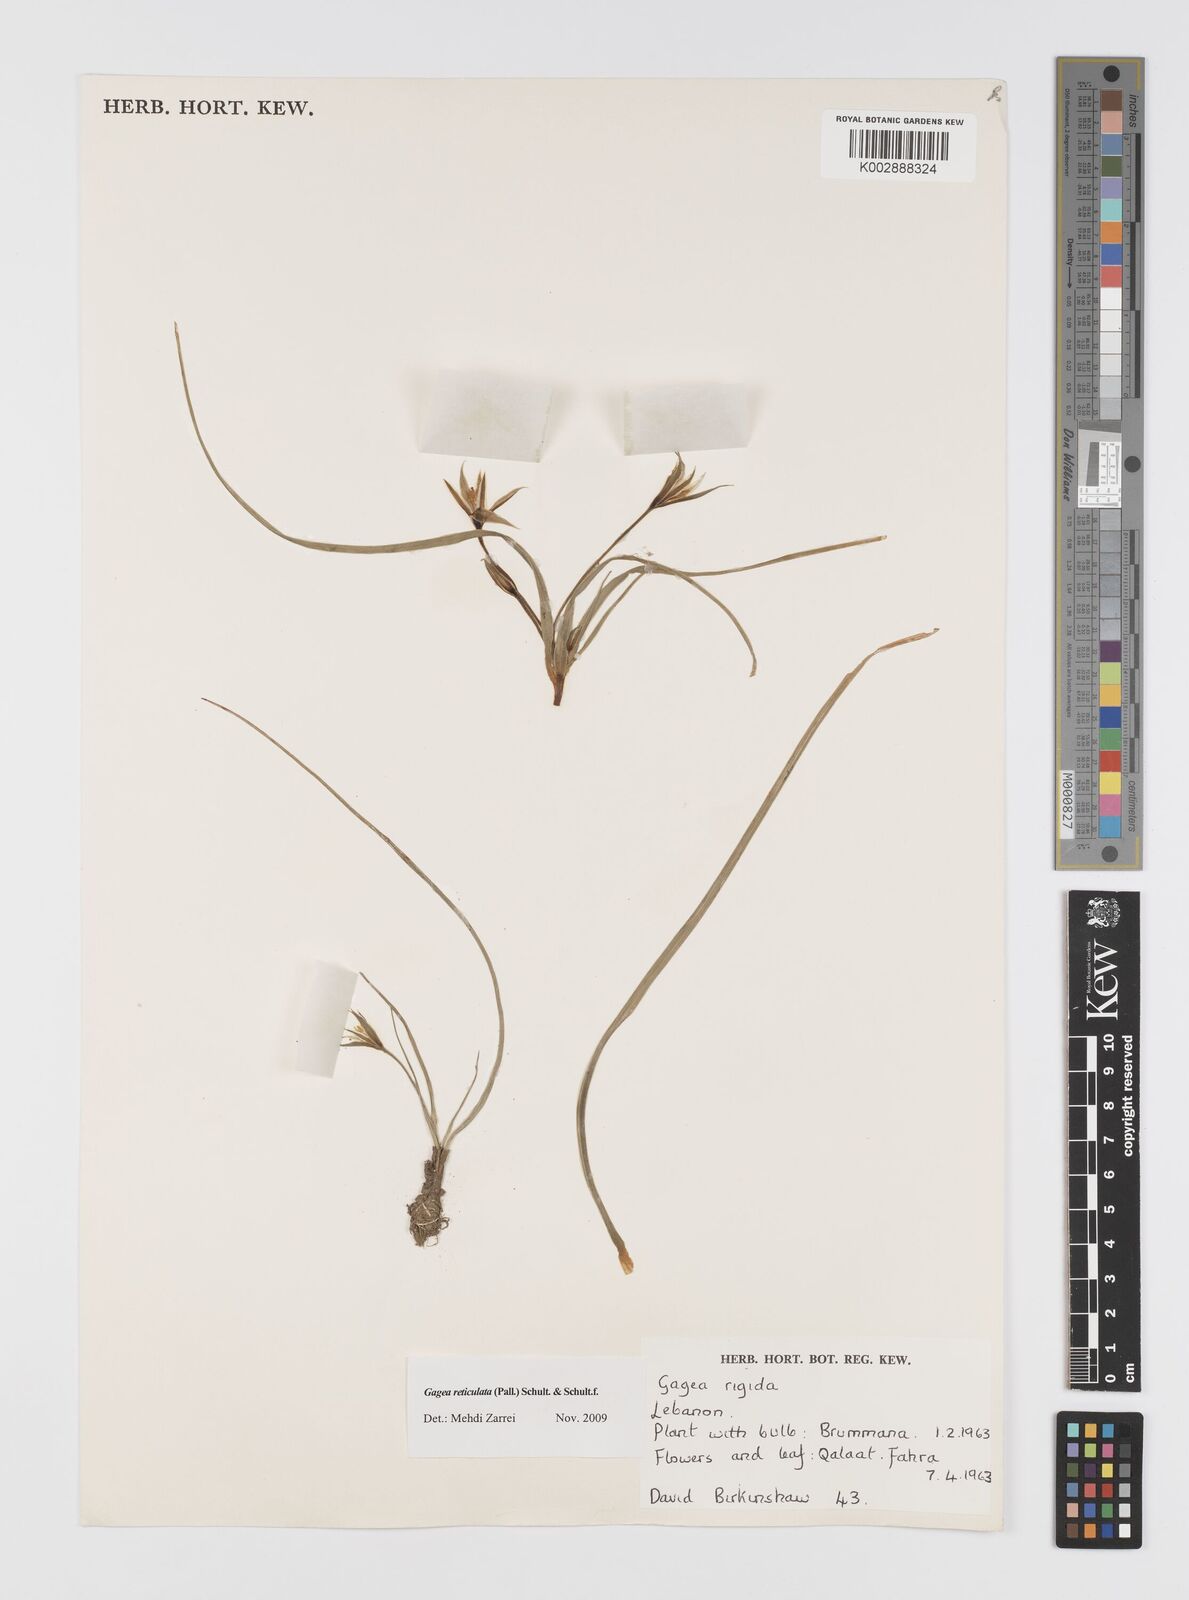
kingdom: Plantae
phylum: Tracheophyta
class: Liliopsida
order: Liliales
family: Liliaceae
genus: Gagea
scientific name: Gagea reticulata
